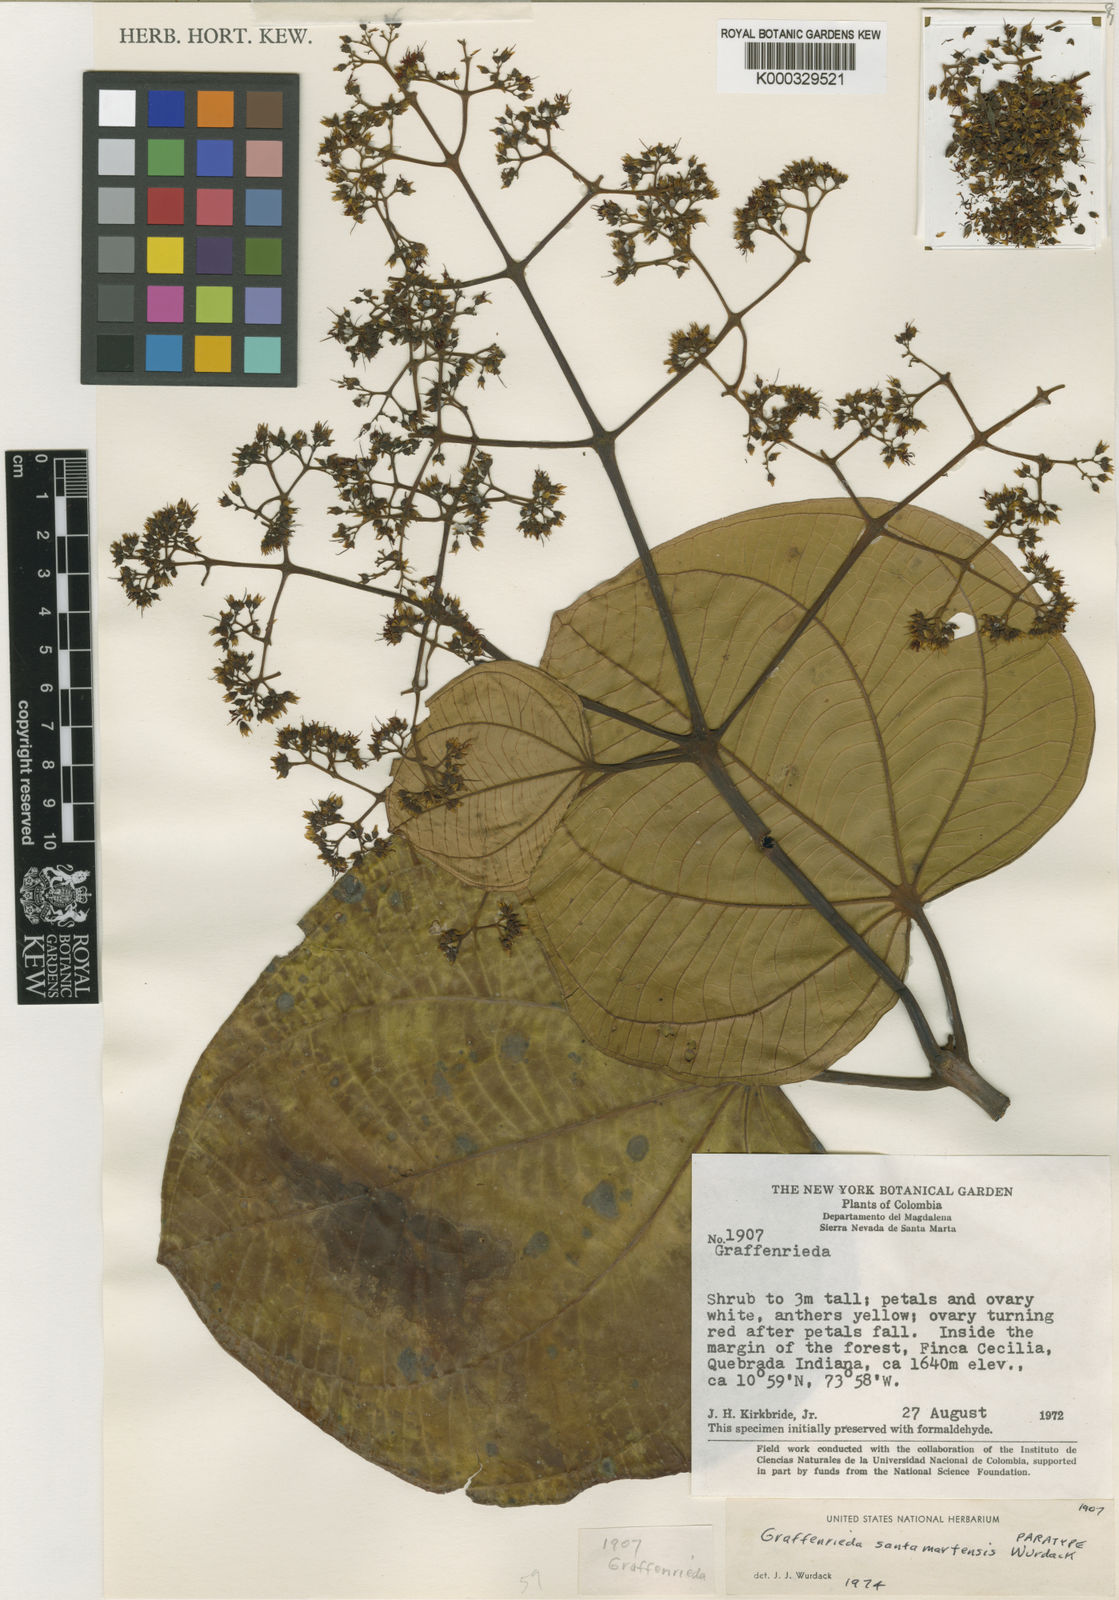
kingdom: Plantae
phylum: Tracheophyta
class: Magnoliopsida
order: Myrtales
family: Melastomataceae
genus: Graffenrieda
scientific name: Graffenrieda santamartensis
